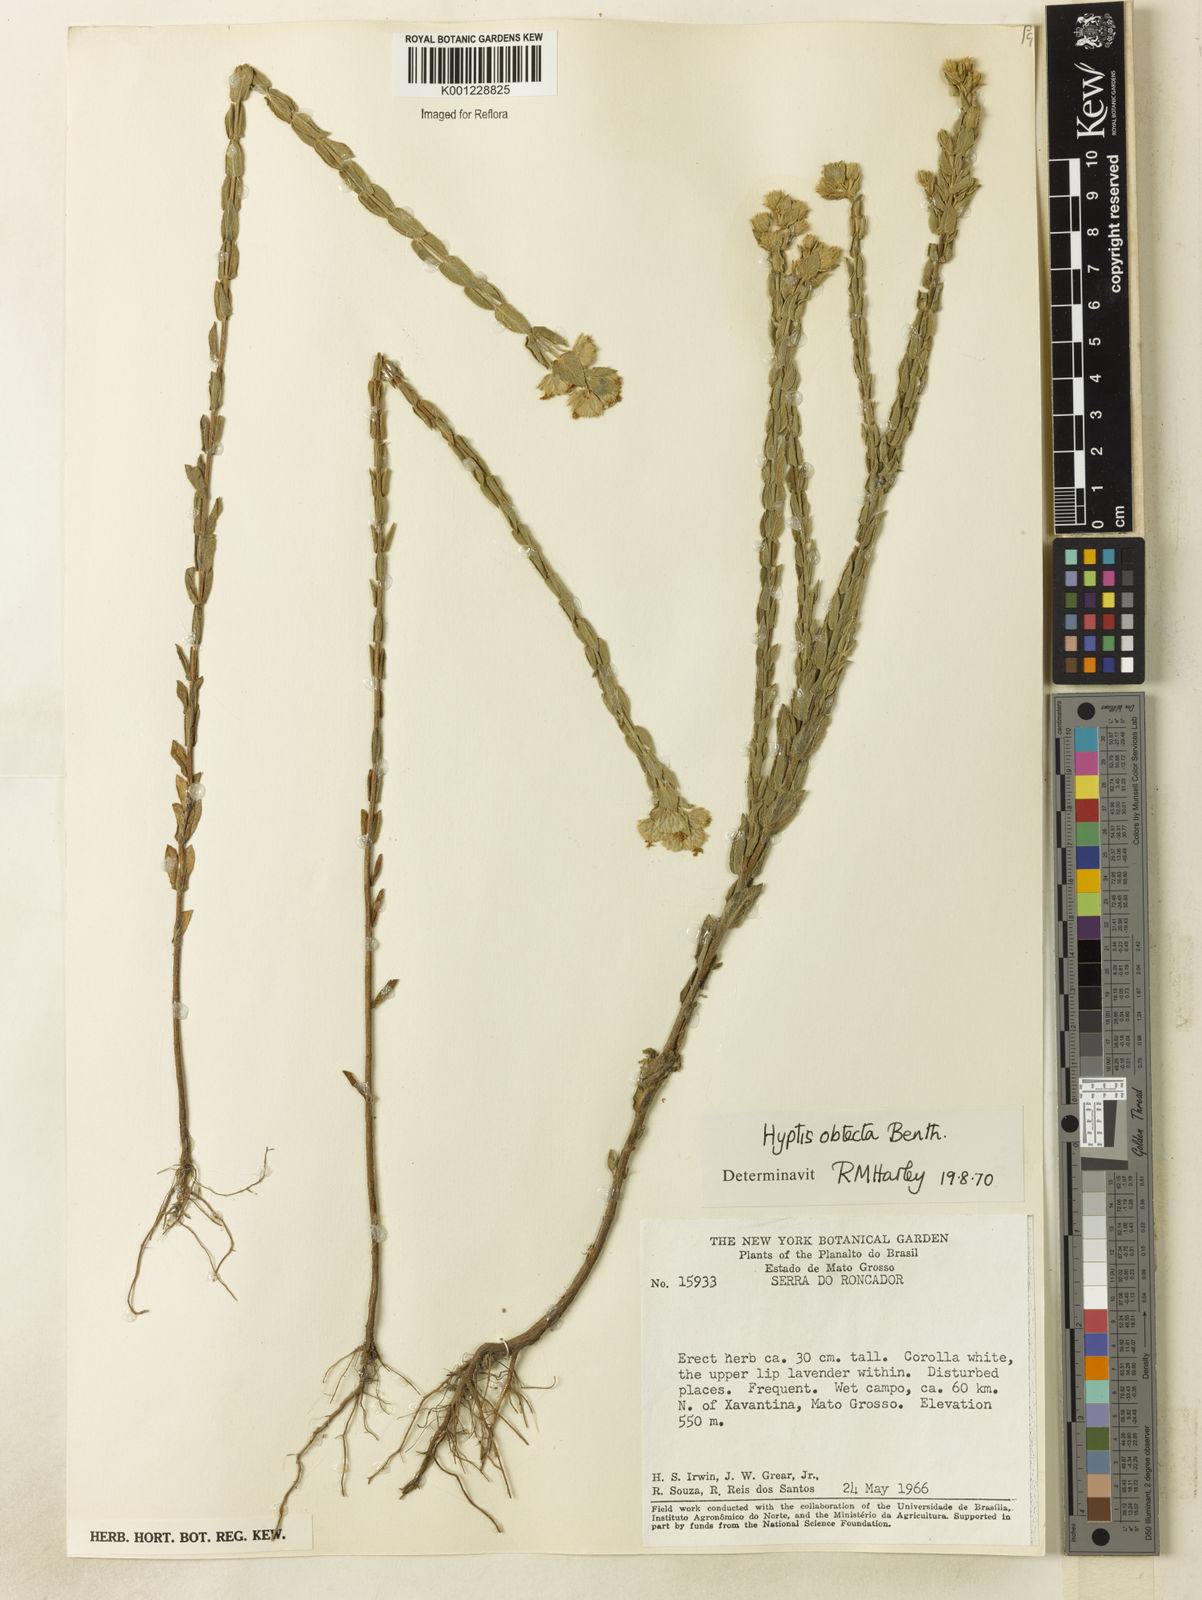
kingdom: Plantae
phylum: Tracheophyta
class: Magnoliopsida
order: Lamiales
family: Lamiaceae
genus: Hyptis
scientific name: Hyptis obtecta
